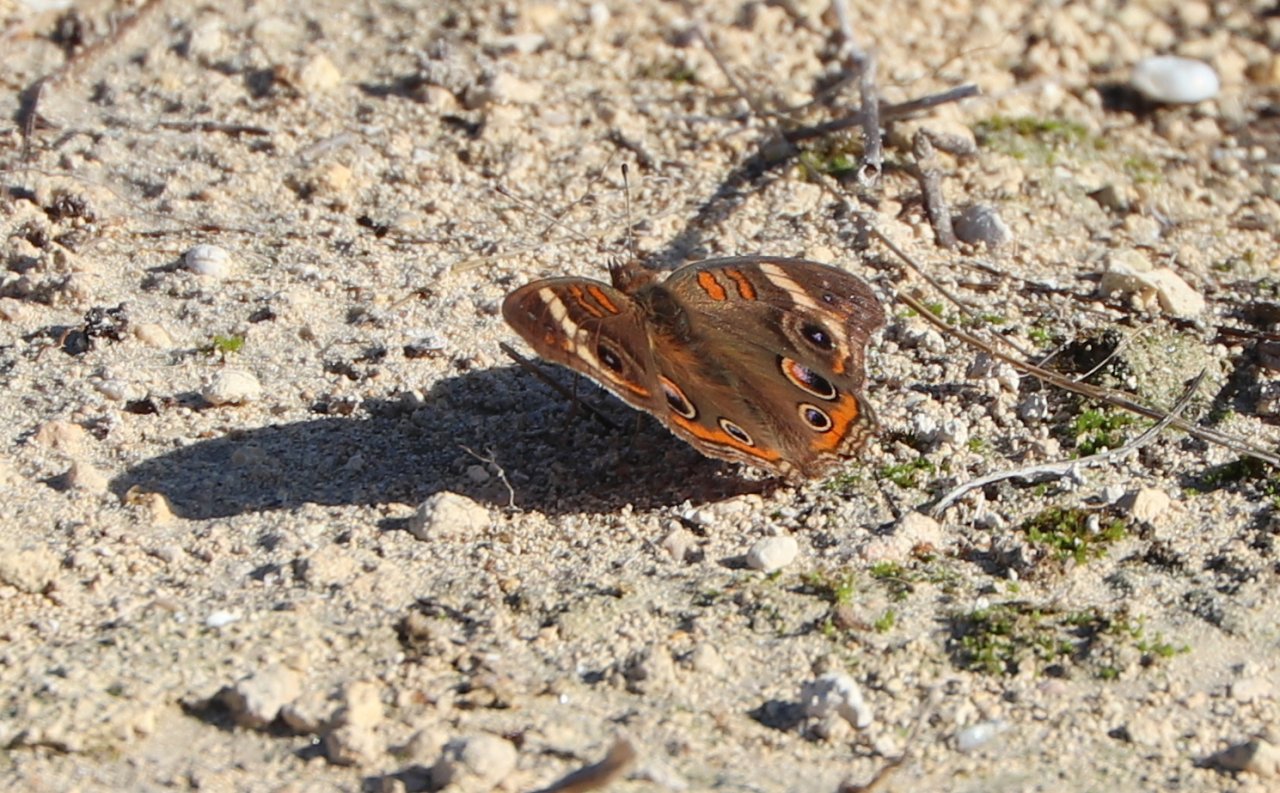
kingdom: Animalia
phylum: Arthropoda
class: Insecta
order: Lepidoptera
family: Nymphalidae
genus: Junonia
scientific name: Junonia coenia
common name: Common Buckeye
